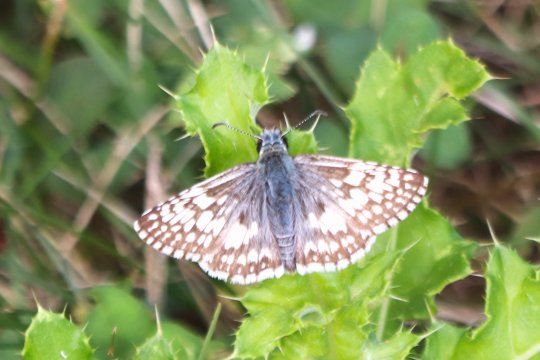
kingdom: Animalia
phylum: Arthropoda
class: Insecta
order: Lepidoptera
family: Hesperiidae
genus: Pyrgus
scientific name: Pyrgus communis
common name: Common Checkered-Skipper
